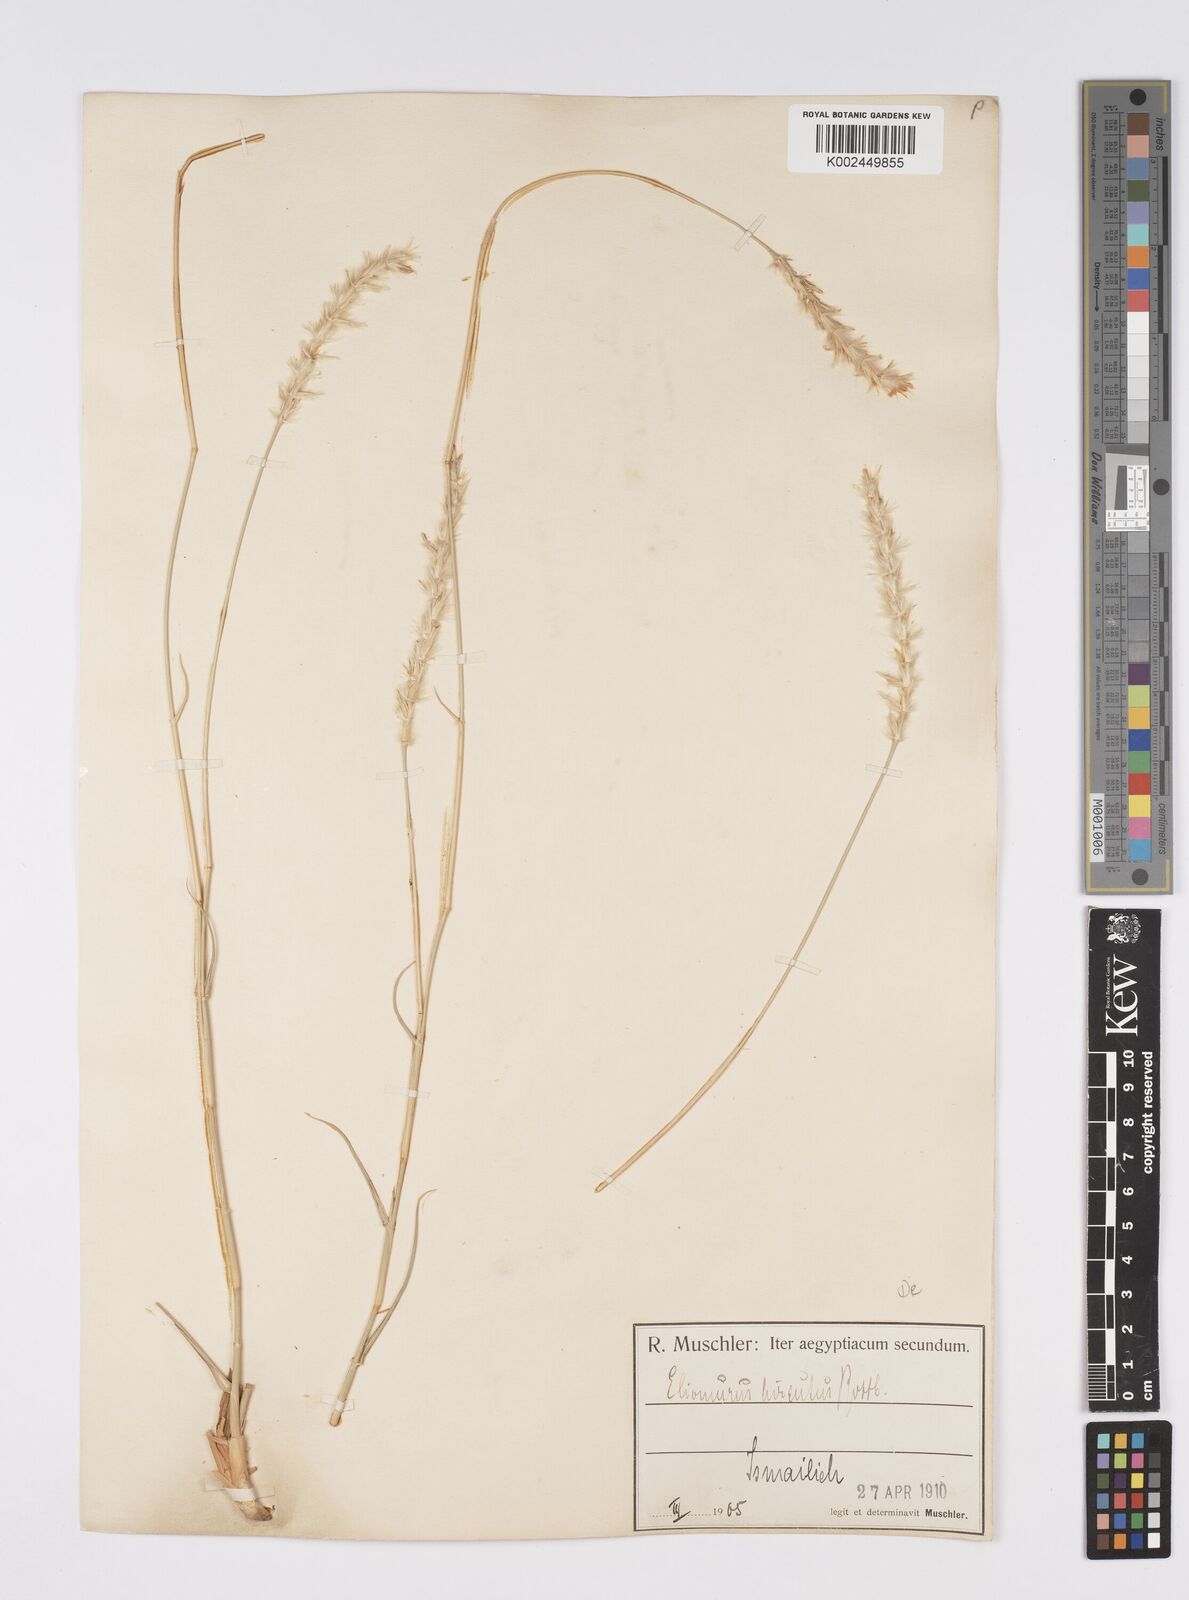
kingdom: Plantae
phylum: Tracheophyta
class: Liliopsida
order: Poales
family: Poaceae
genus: Lasiurus
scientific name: Lasiurus scindicus
